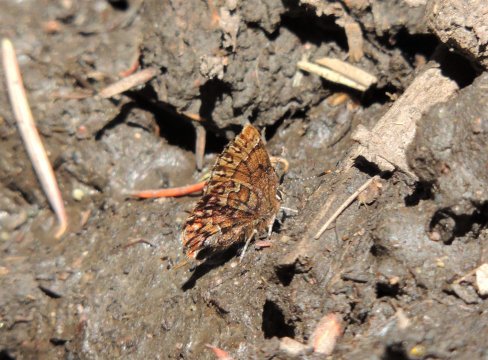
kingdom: Animalia
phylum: Arthropoda
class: Insecta
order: Lepidoptera
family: Lycaenidae
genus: Incisalia
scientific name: Incisalia eryphon
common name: Western Pine Elfin
